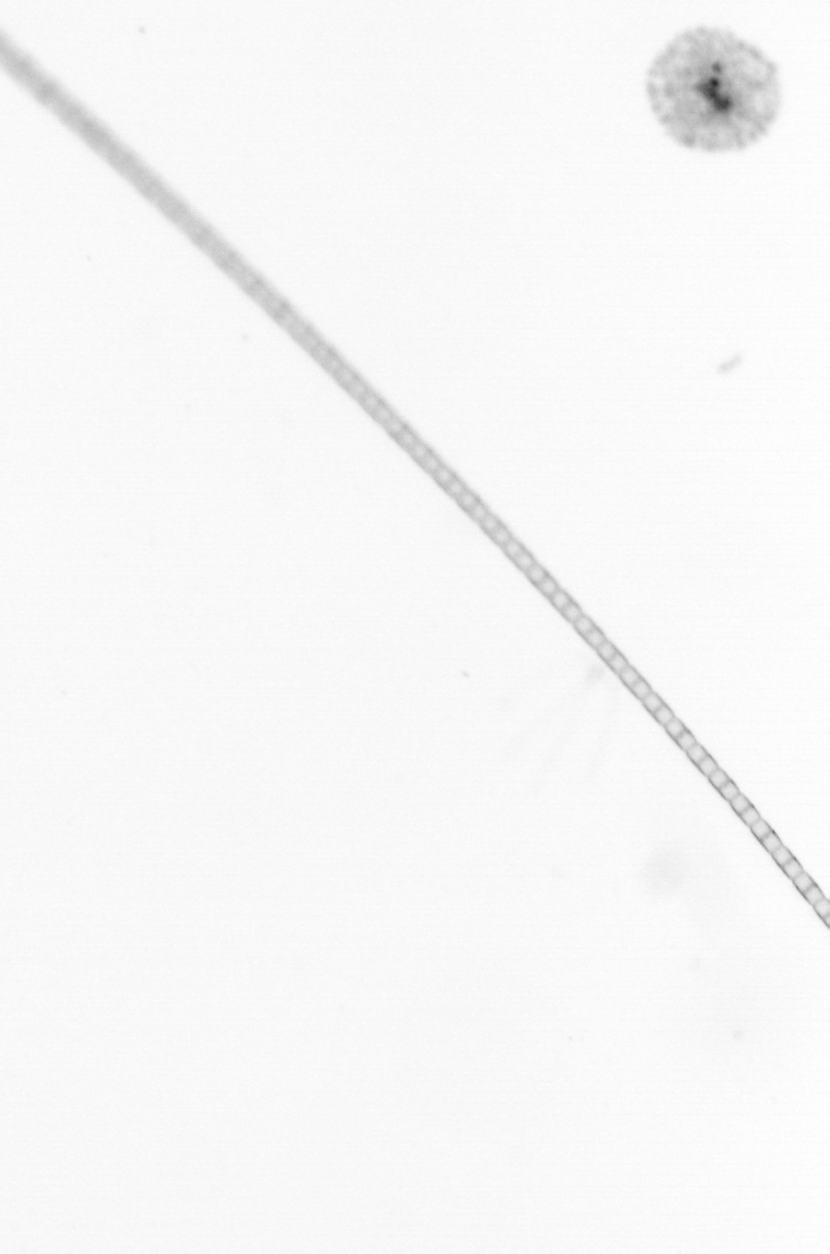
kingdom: Chromista
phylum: Ochrophyta
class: Bacillariophyceae
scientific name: Bacillariophyceae
